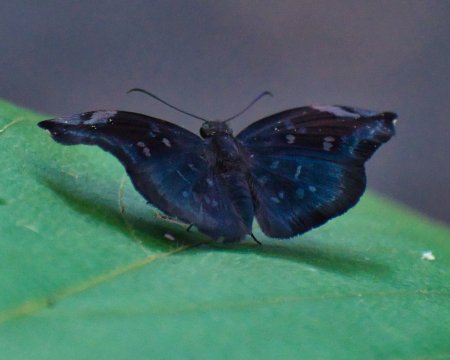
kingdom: Animalia
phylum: Arthropoda
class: Insecta
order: Lepidoptera
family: Hesperiidae
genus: Achlyodes
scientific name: Achlyodes thraso
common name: Southern Sicklewing
